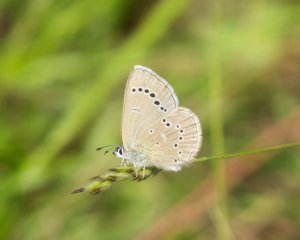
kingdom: Animalia
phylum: Arthropoda
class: Insecta
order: Lepidoptera
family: Lycaenidae
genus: Glaucopsyche
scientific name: Glaucopsyche lygdamus
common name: Silvery Blue
